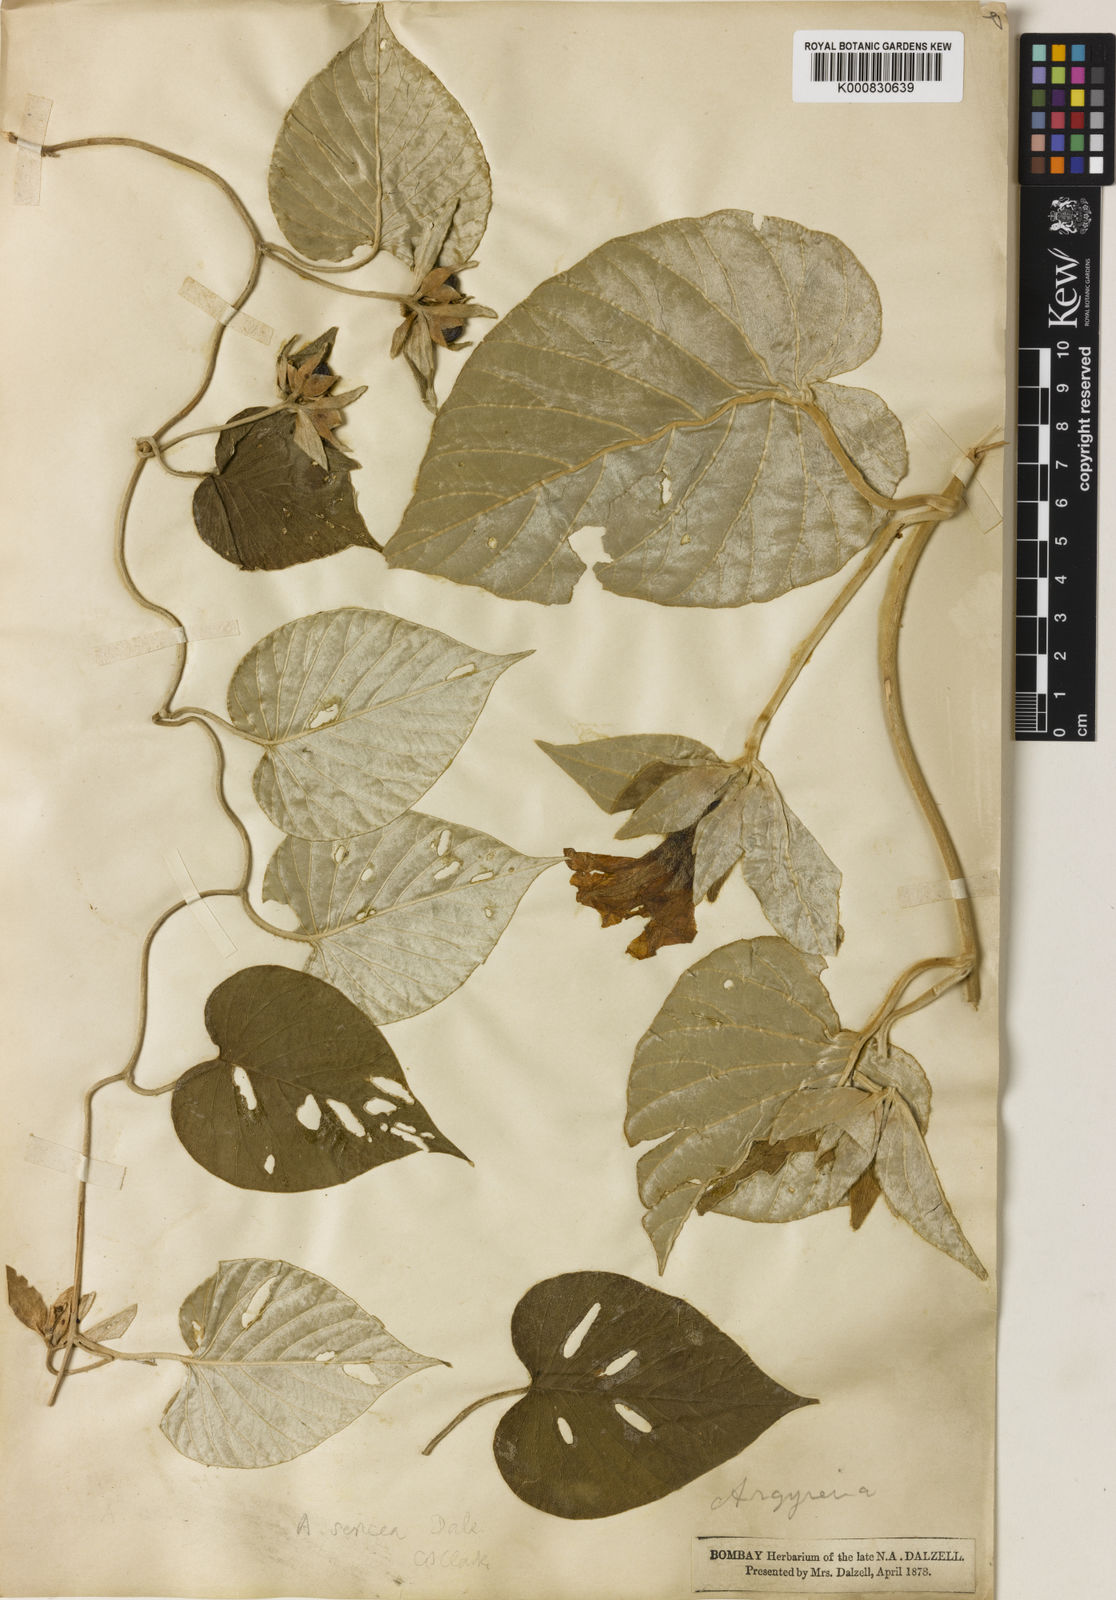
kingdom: Plantae
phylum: Tracheophyta
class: Magnoliopsida
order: Solanales
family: Convolvulaceae
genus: Argyreia
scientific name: Argyreia sericea
